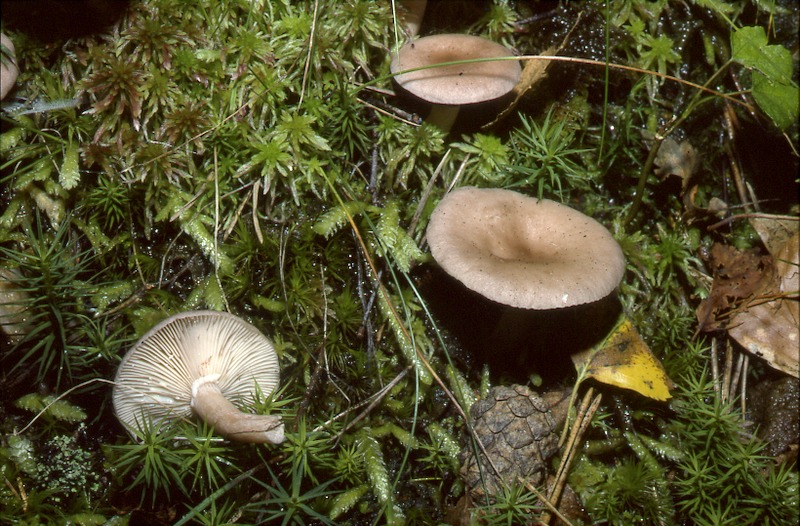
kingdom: Fungi
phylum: Basidiomycota
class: Agaricomycetes
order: Russulales
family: Russulaceae
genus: Lactarius
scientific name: Lactarius glyciosmus
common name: Coconut milkcap
